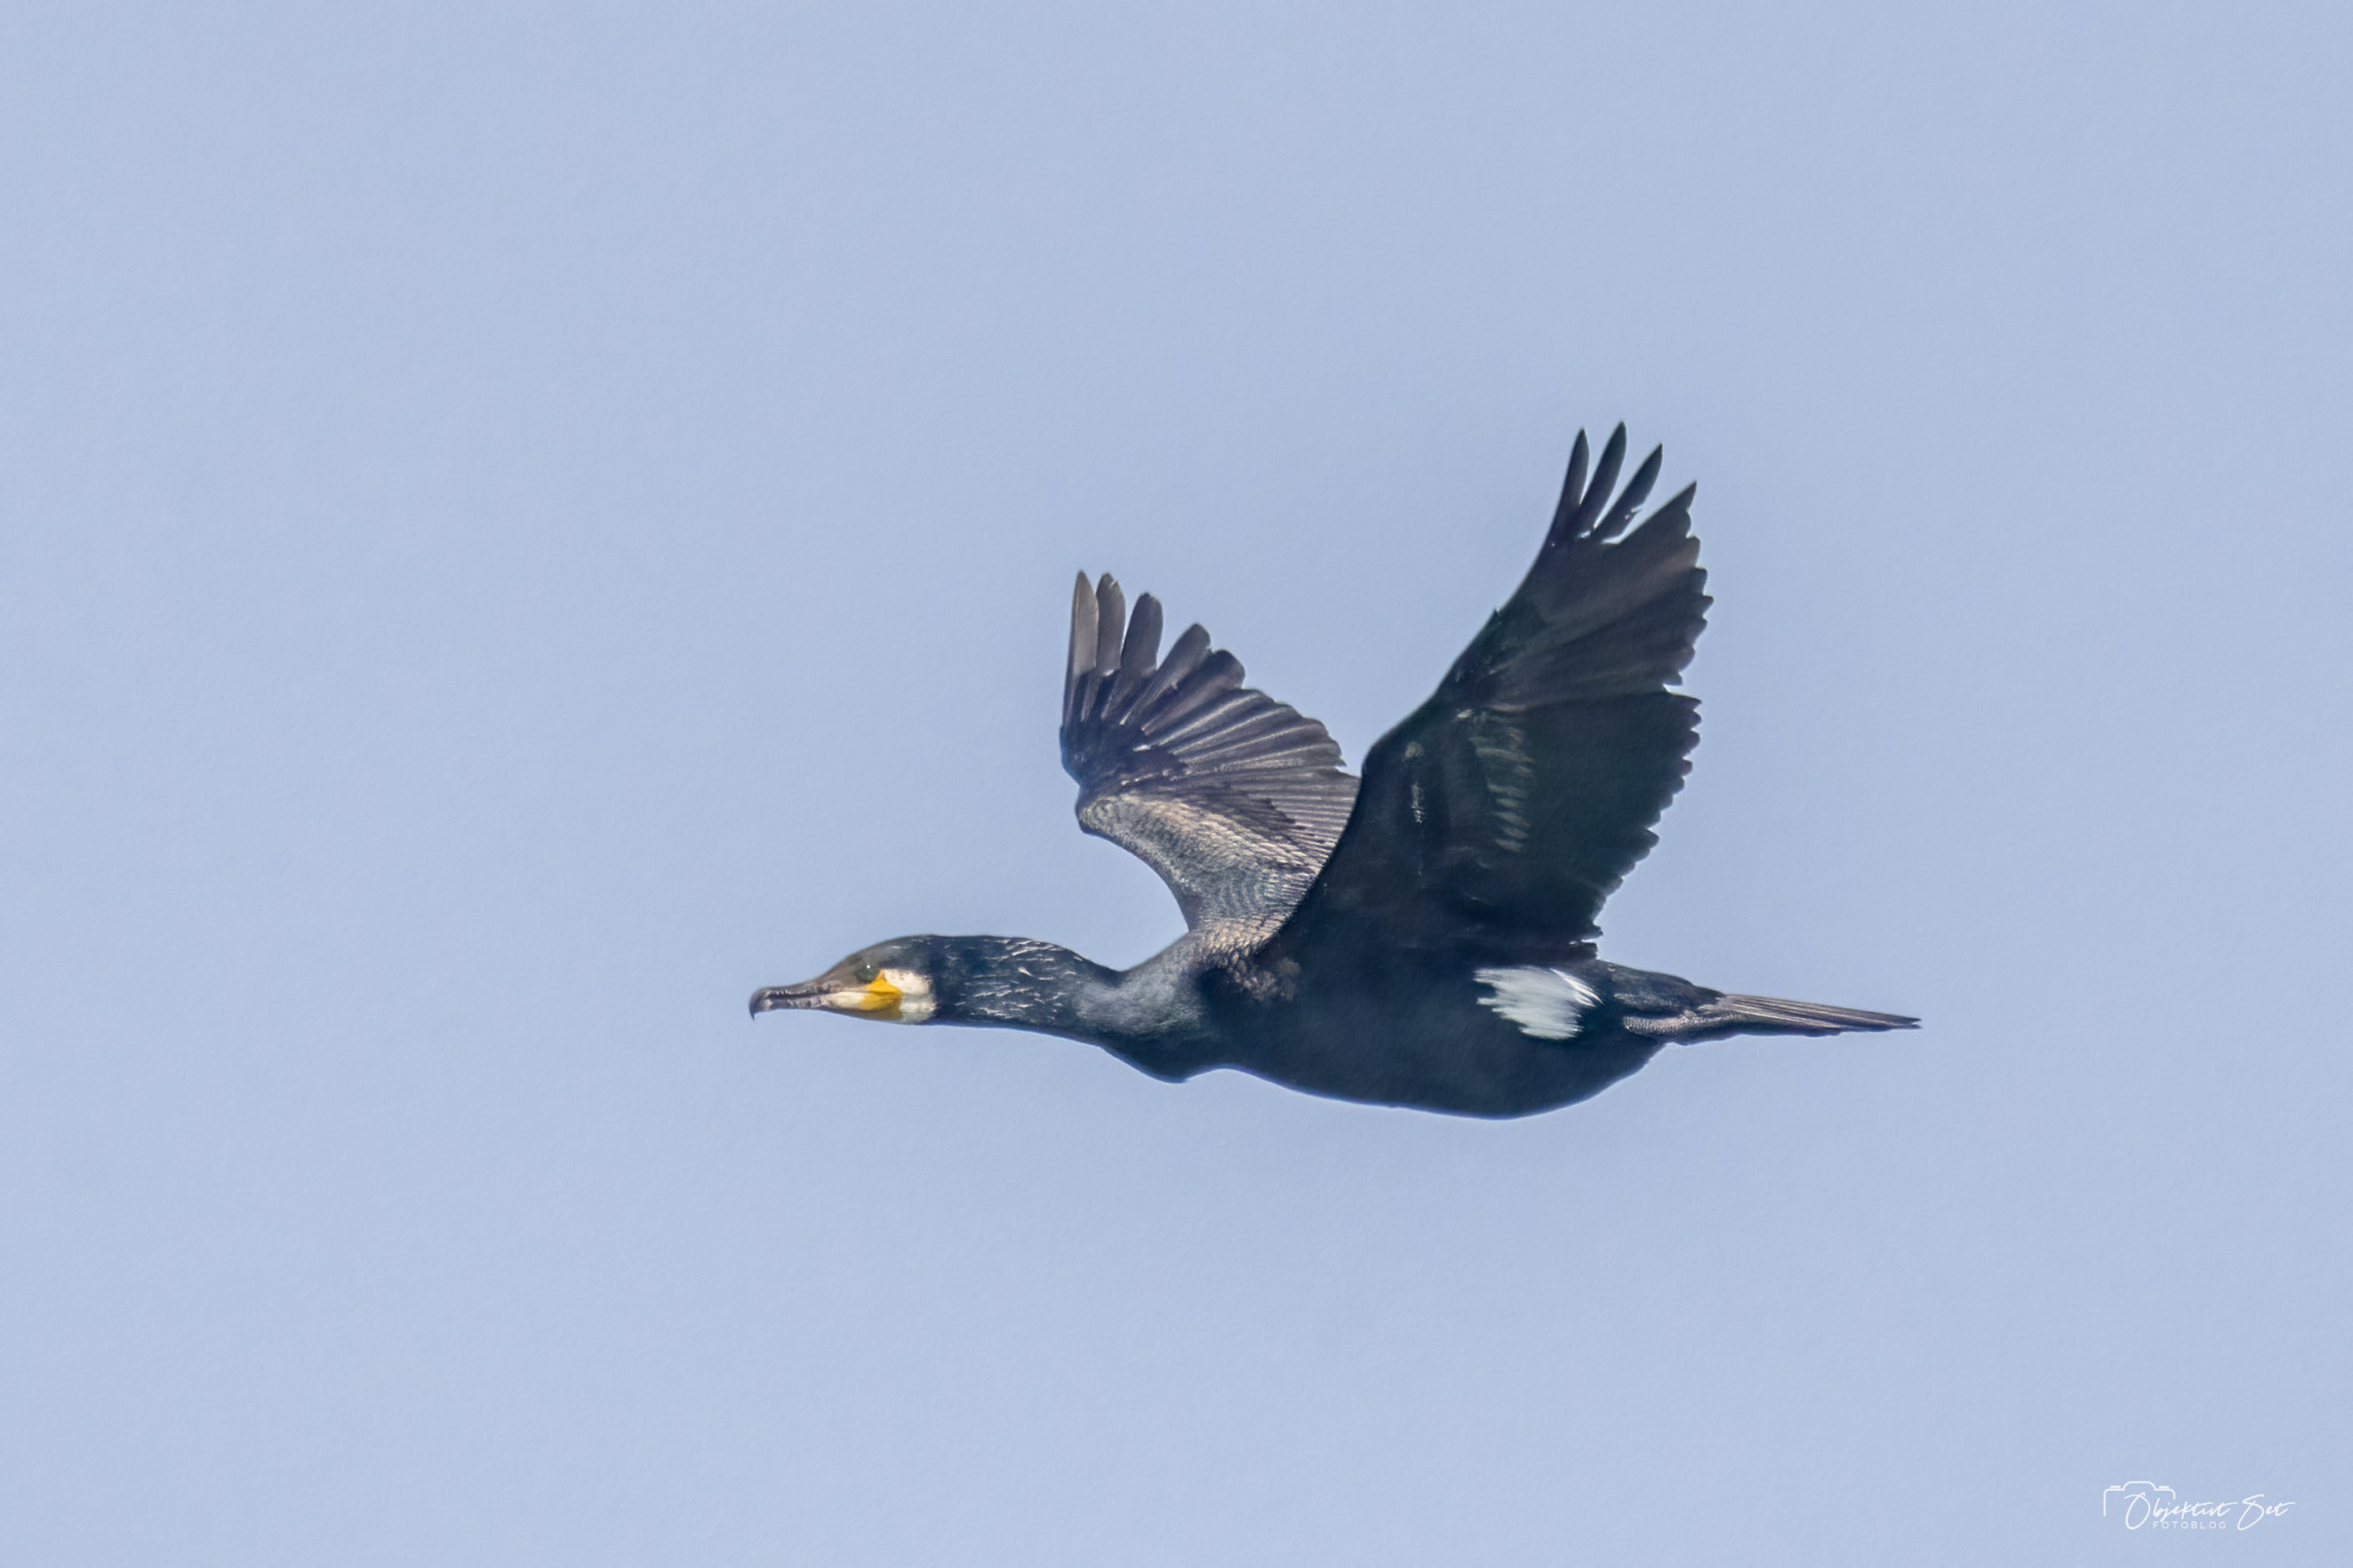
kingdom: Animalia
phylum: Chordata
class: Aves
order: Suliformes
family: Phalacrocoracidae
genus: Phalacrocorax
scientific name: Phalacrocorax carbo
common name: Skarv
